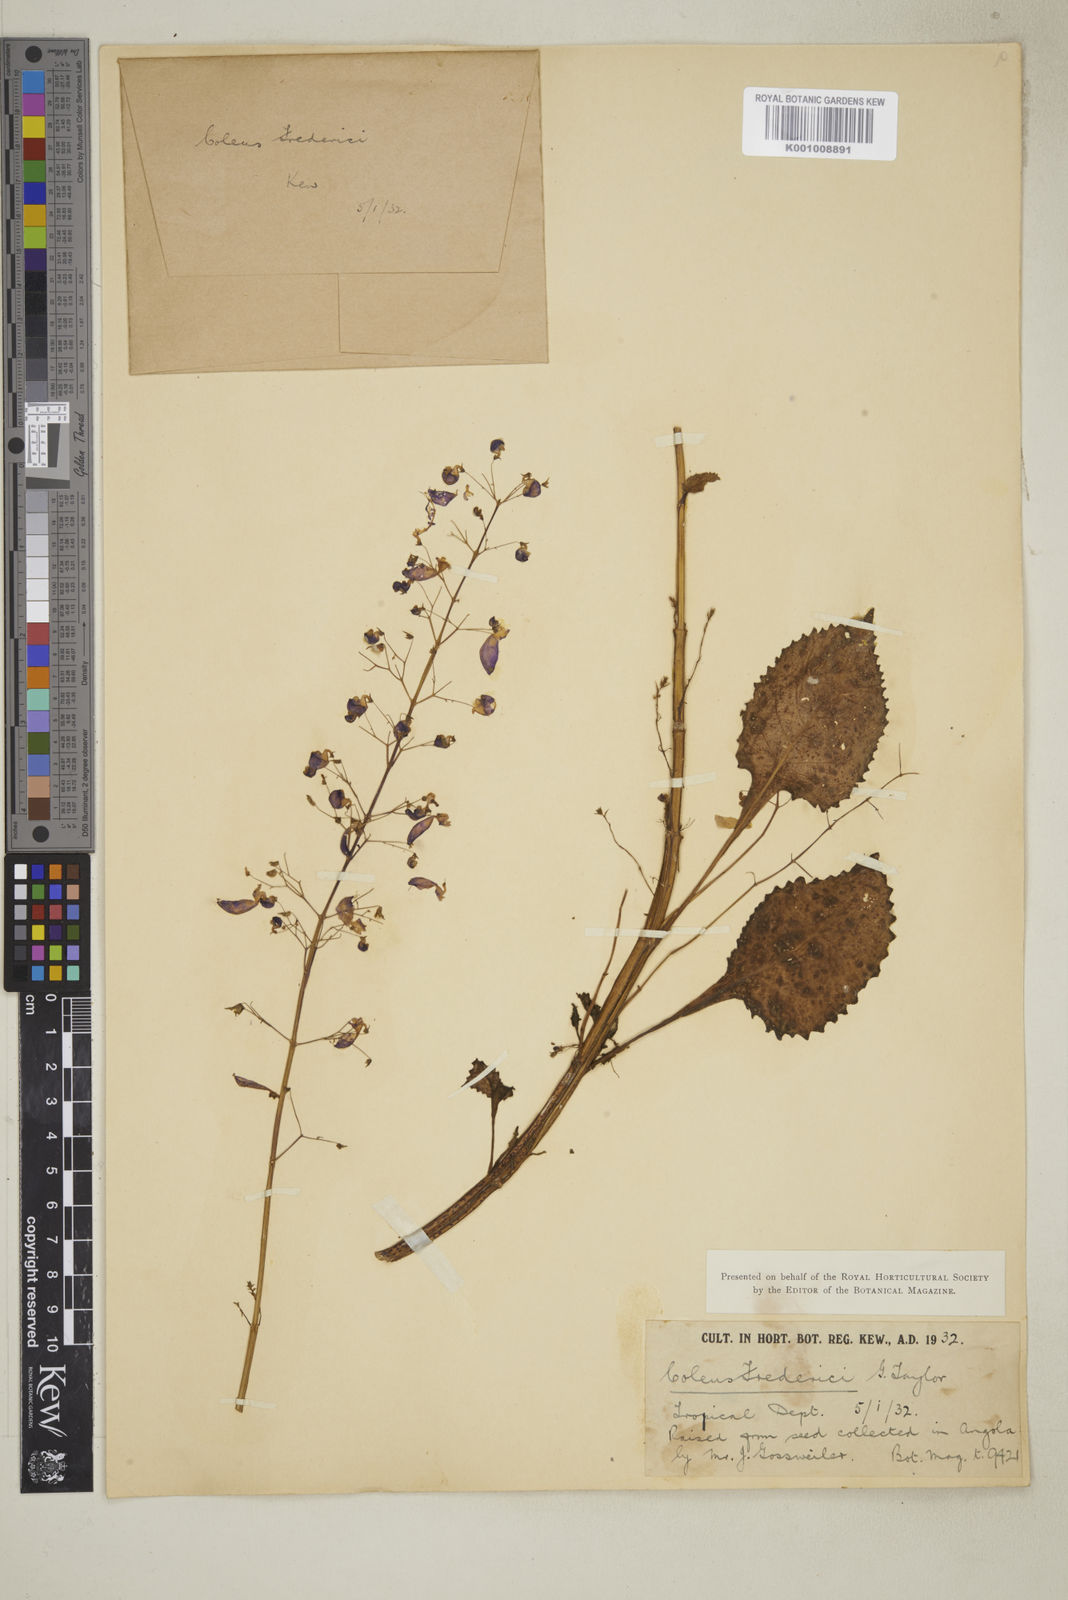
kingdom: Plantae
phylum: Tracheophyta
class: Magnoliopsida
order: Lamiales
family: Lamiaceae
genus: Plectranthus
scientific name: Plectranthus
